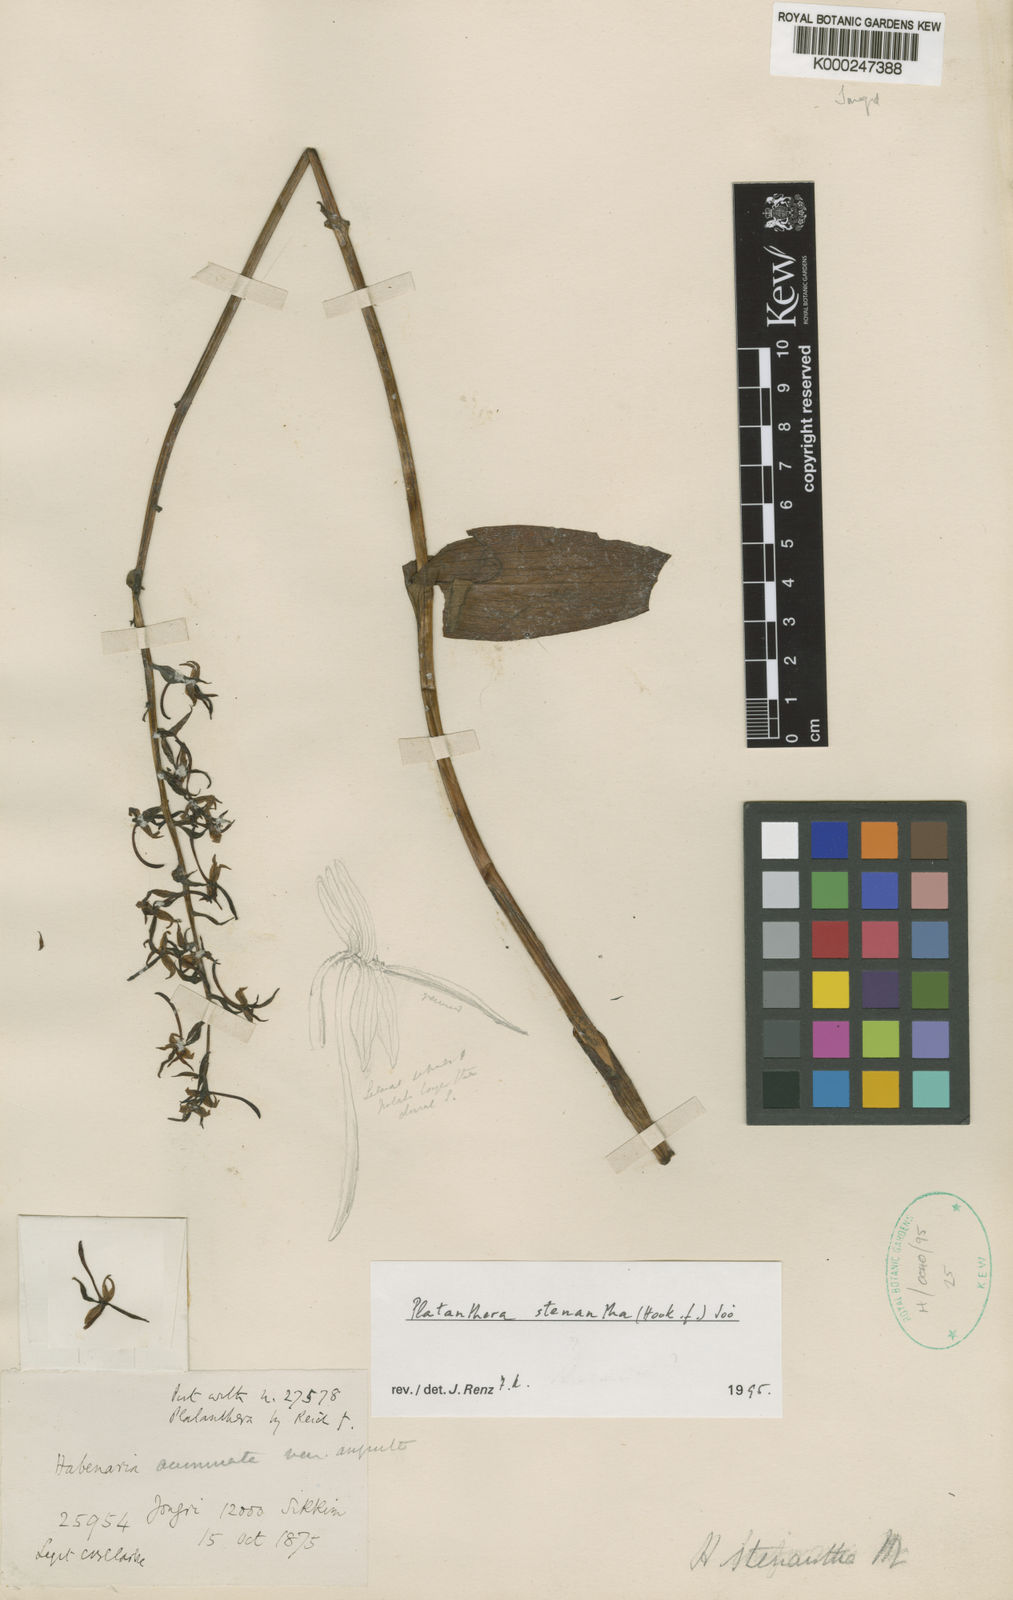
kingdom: Plantae
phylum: Tracheophyta
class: Liliopsida
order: Asparagales
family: Orchidaceae
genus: Platanthera
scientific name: Platanthera
